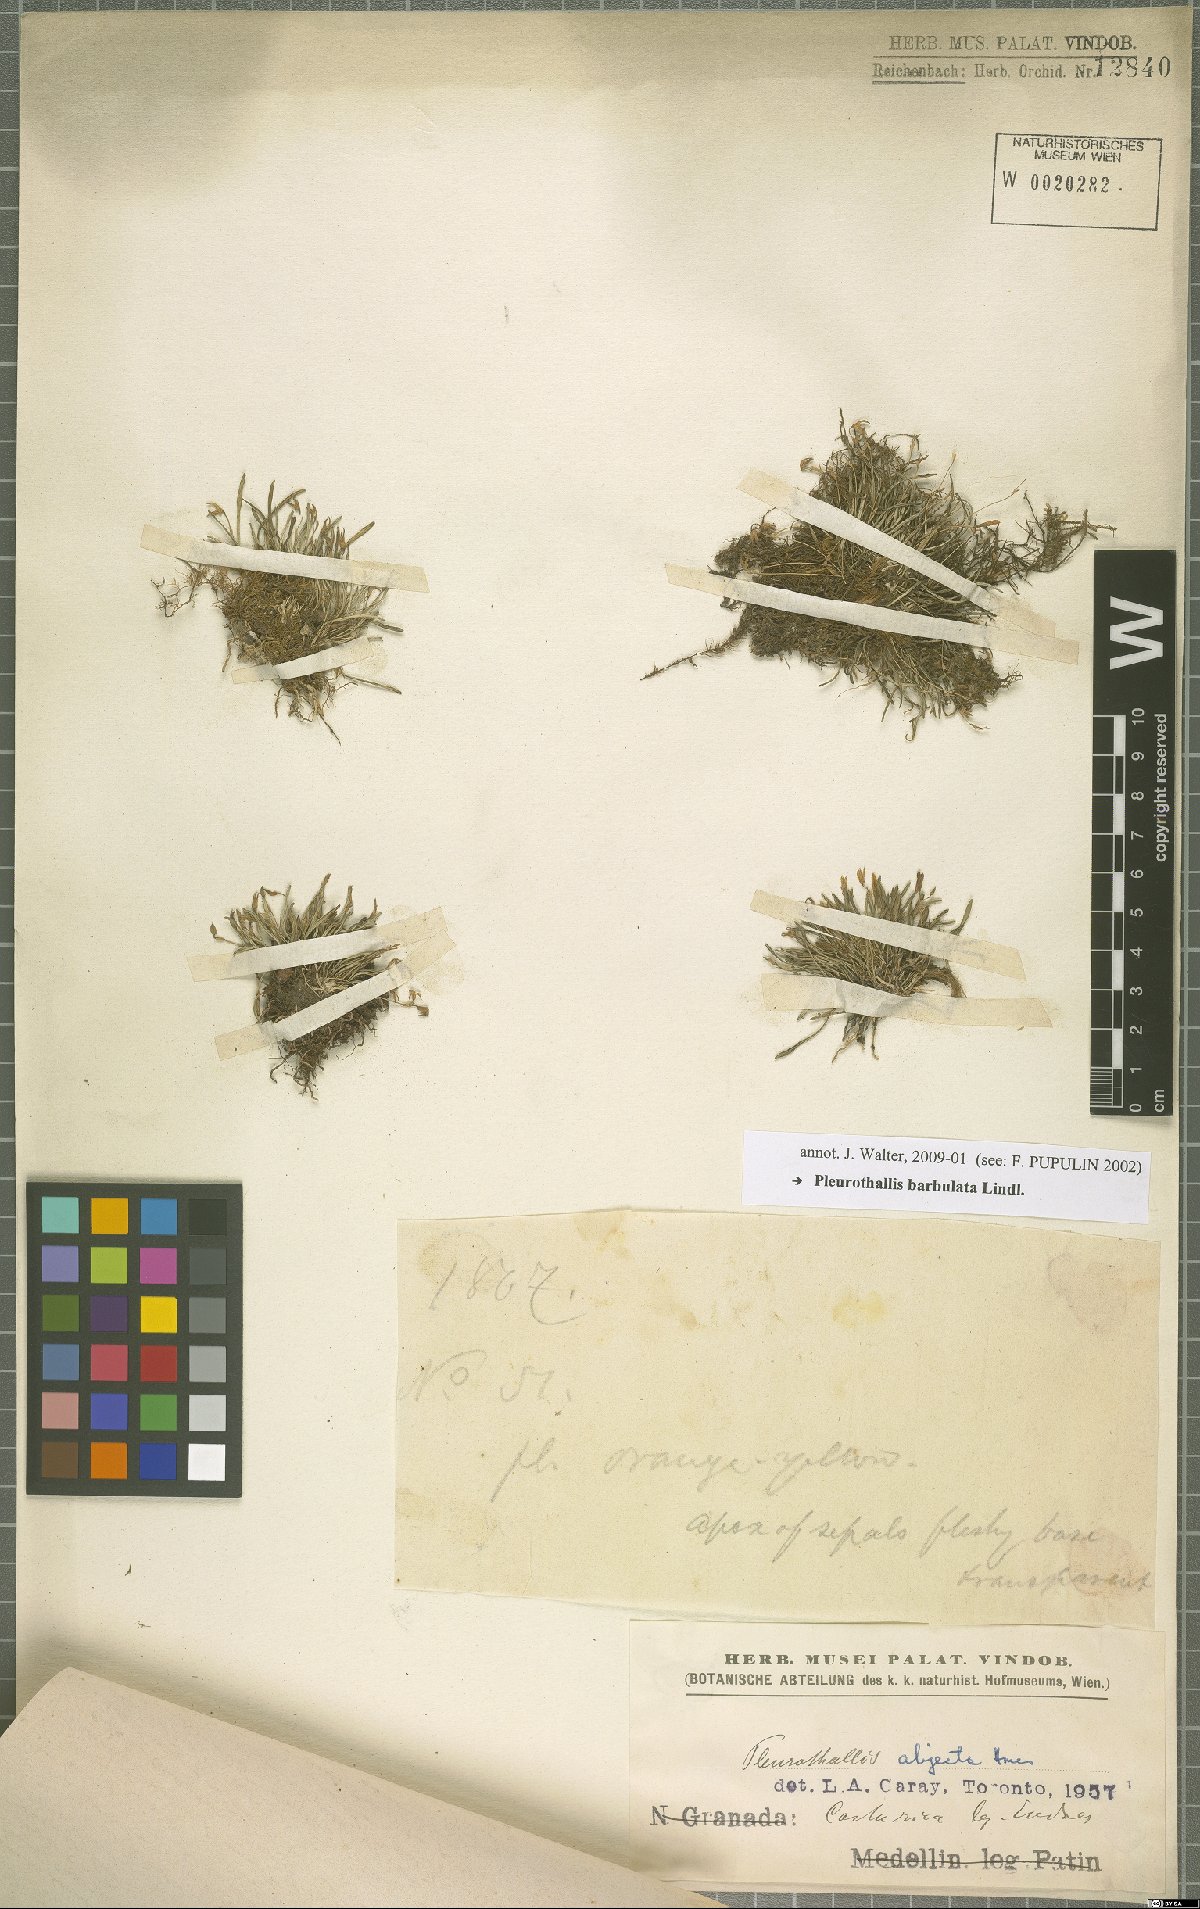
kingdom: Plantae
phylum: Tracheophyta
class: Liliopsida
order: Asparagales
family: Orchidaceae
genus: Anathallis
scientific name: Anathallis barbulata
